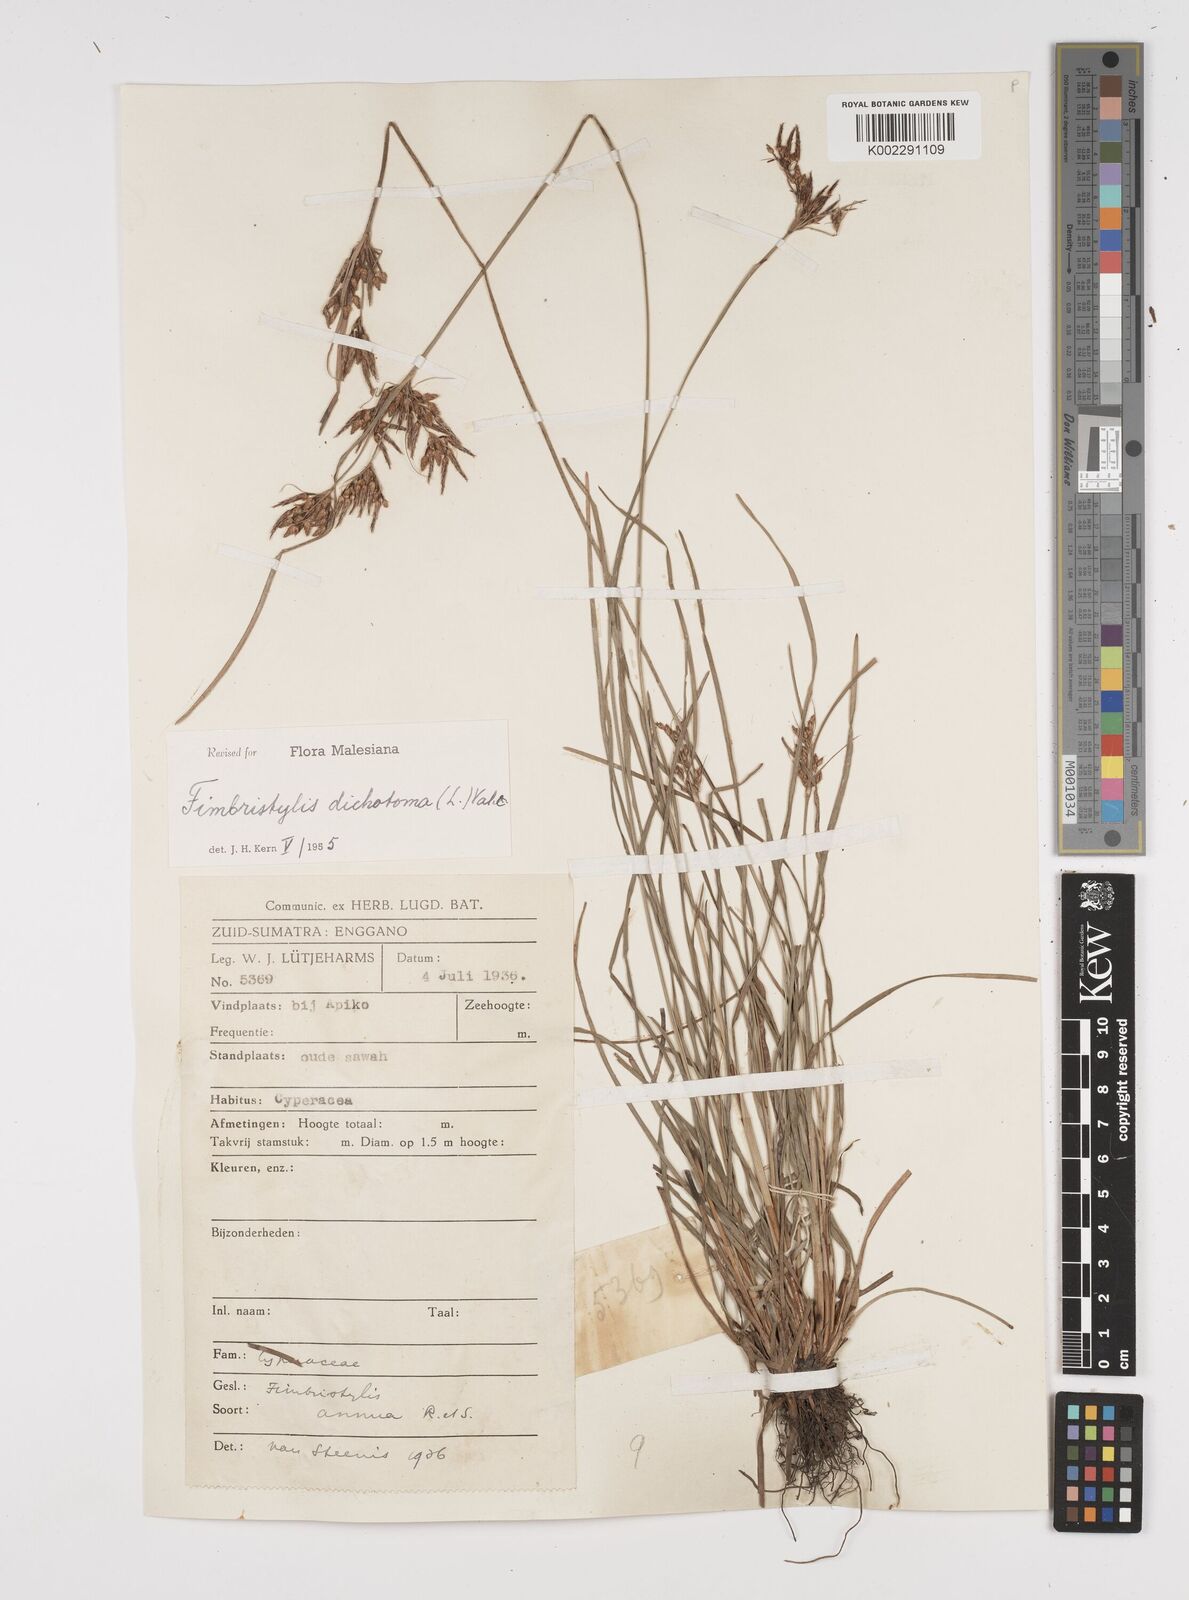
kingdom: Plantae
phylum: Tracheophyta
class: Liliopsida
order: Poales
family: Cyperaceae
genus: Fimbristylis
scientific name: Fimbristylis dichotoma
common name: Forked fimbry
